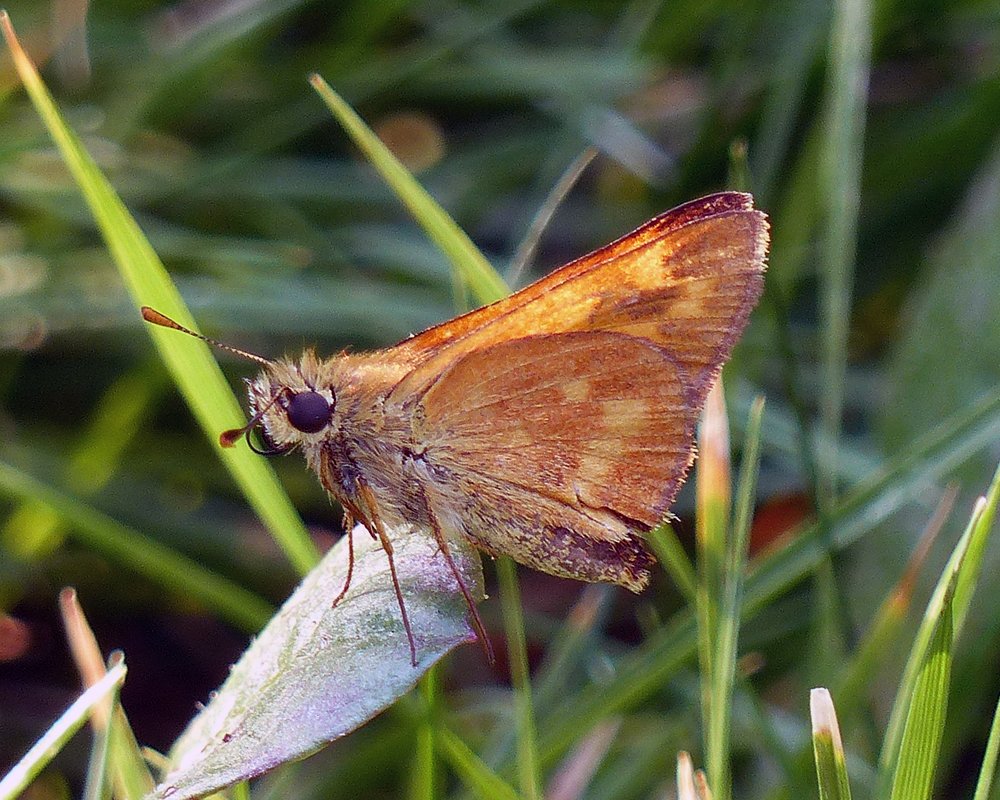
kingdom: Animalia
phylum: Arthropoda
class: Insecta
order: Lepidoptera
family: Hesperiidae
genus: Ochlodes
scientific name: Ochlodes sylvanoides
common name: Woodland Skipper
